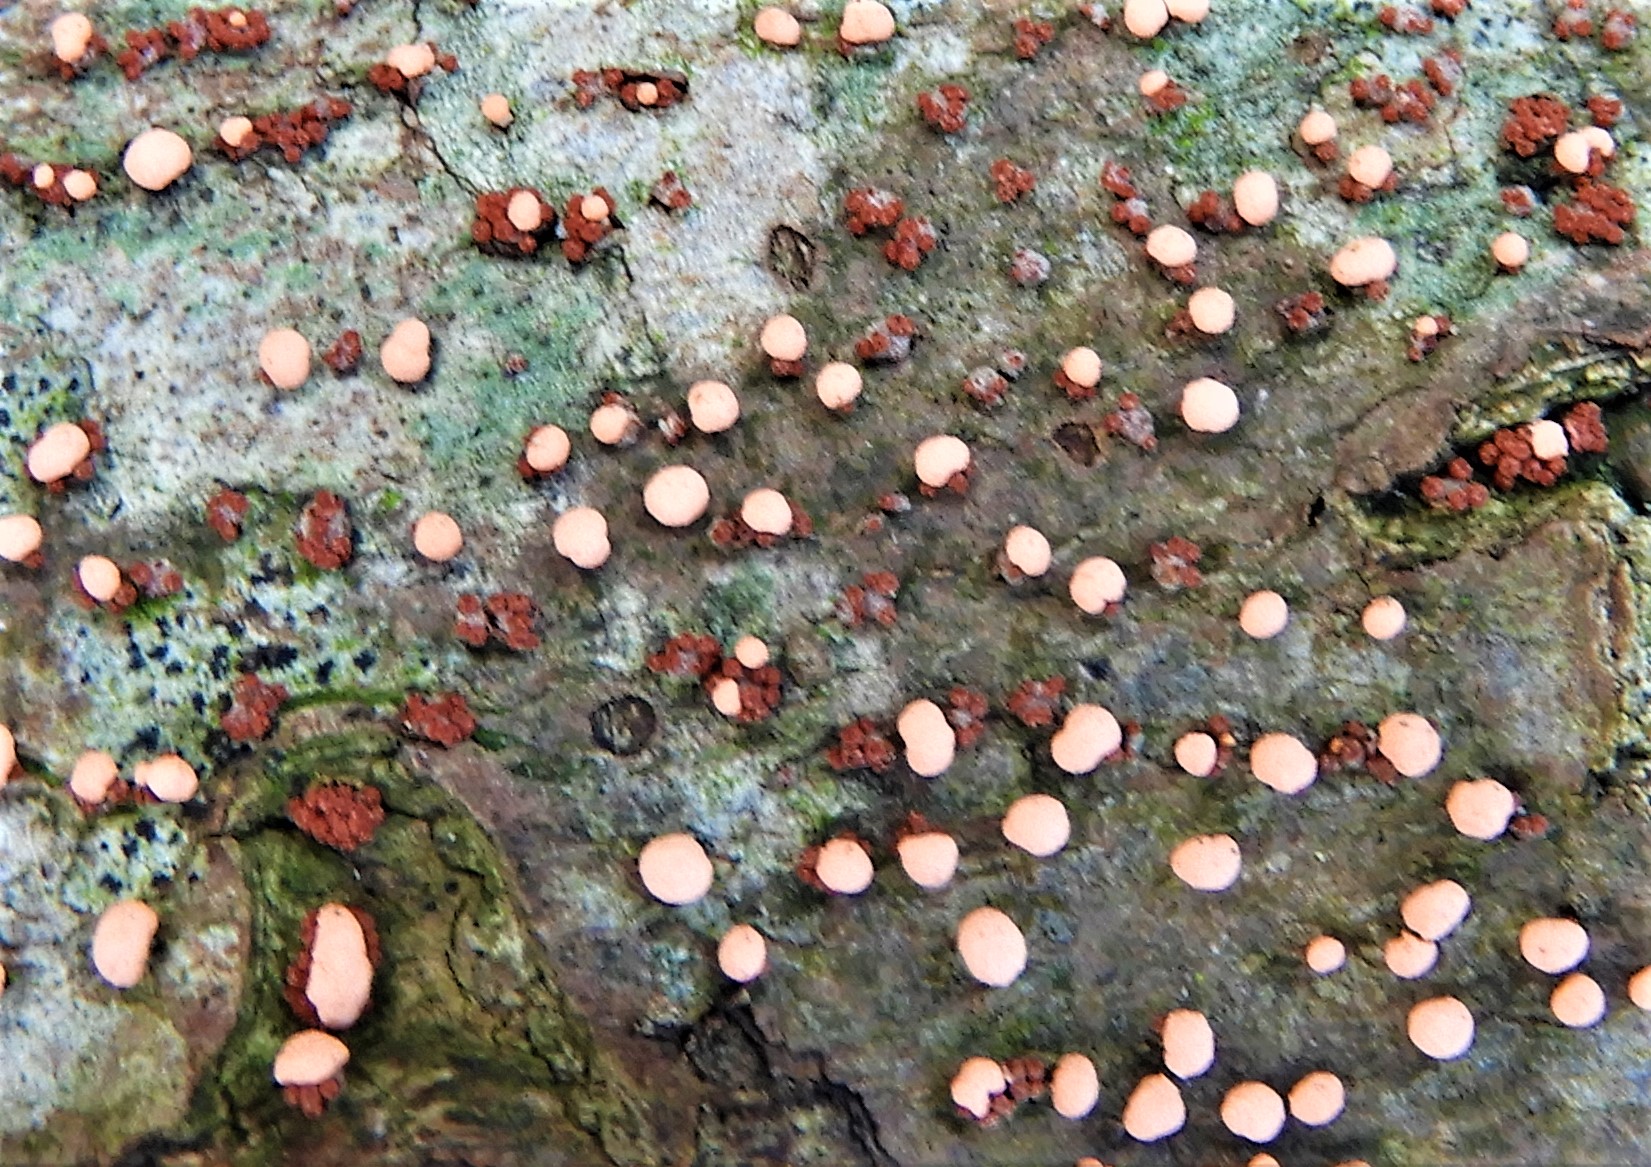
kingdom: Fungi
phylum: Ascomycota
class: Sordariomycetes
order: Hypocreales
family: Nectriaceae
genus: Nectria
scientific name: Nectria cinnabarina
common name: almindelig cinnobersvamp
